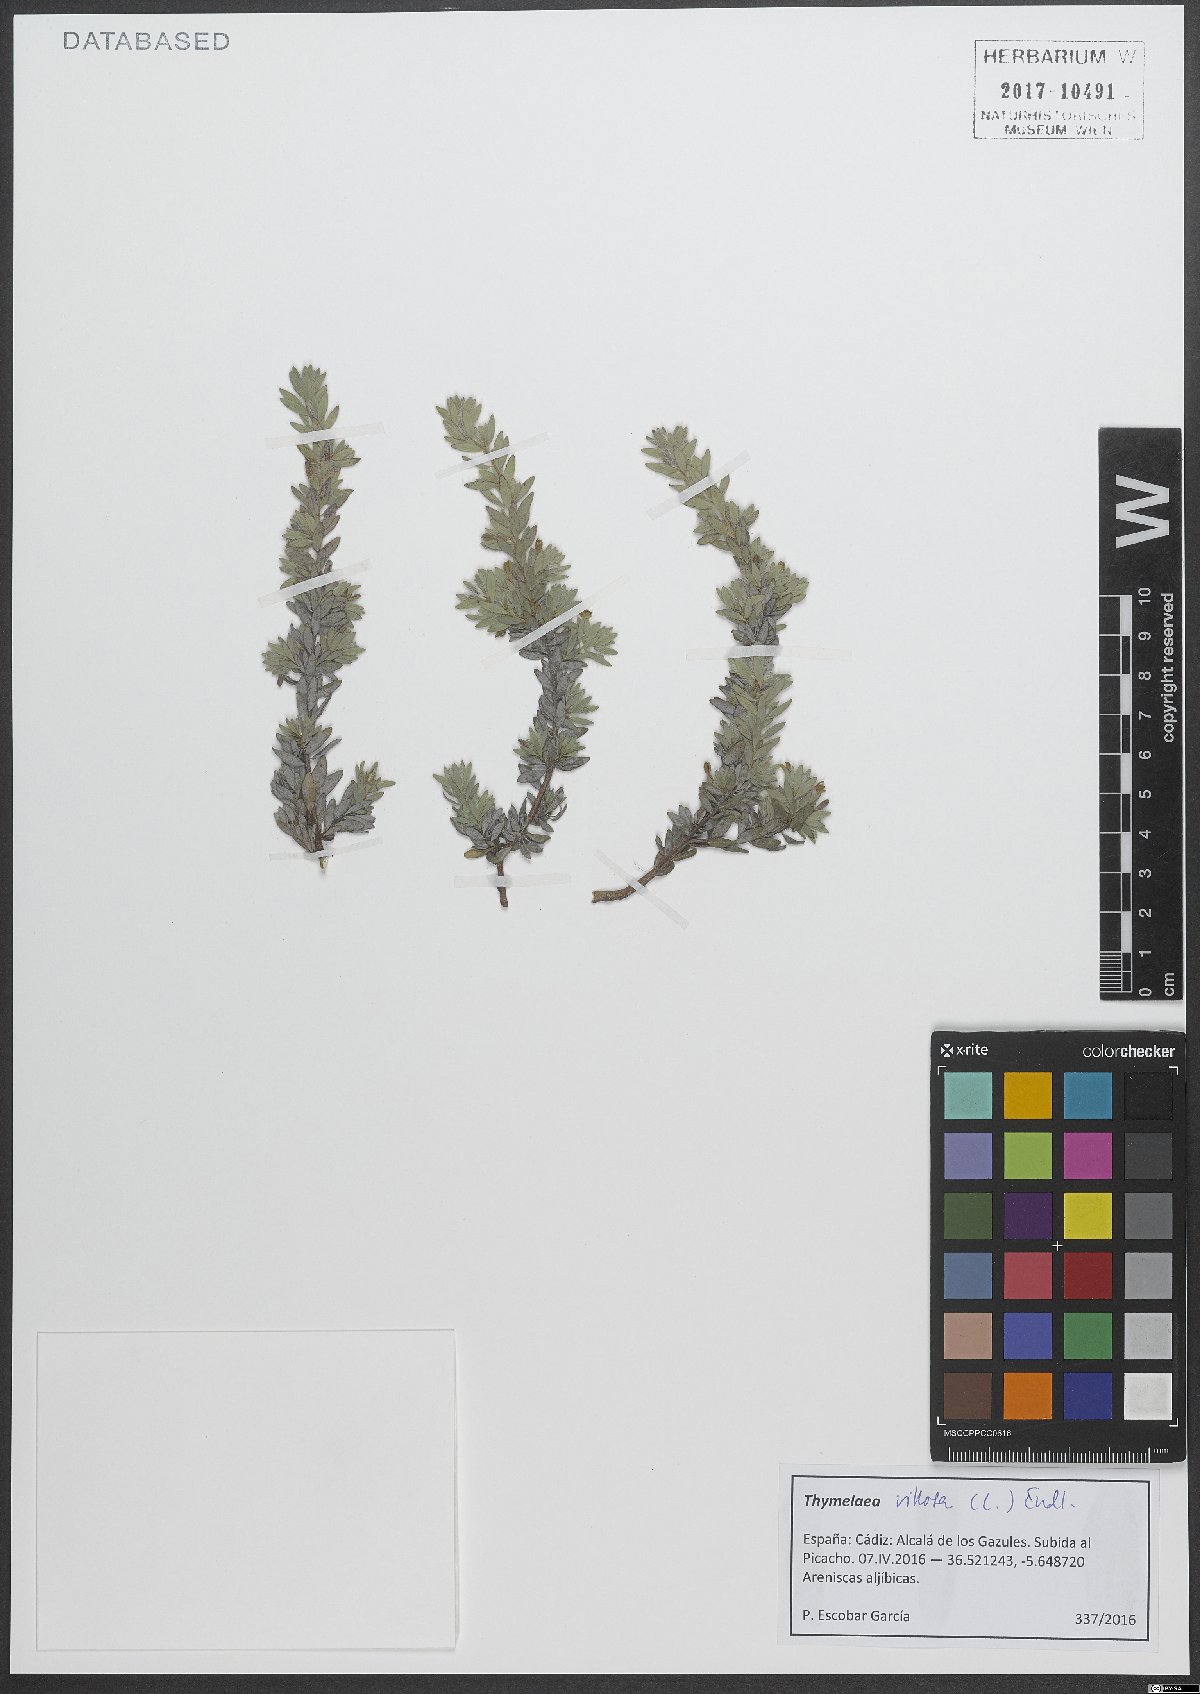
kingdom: Plantae
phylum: Tracheophyta
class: Magnoliopsida
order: Malvales
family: Thymelaeaceae
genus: Thymelaea
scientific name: Thymelaea villosa
